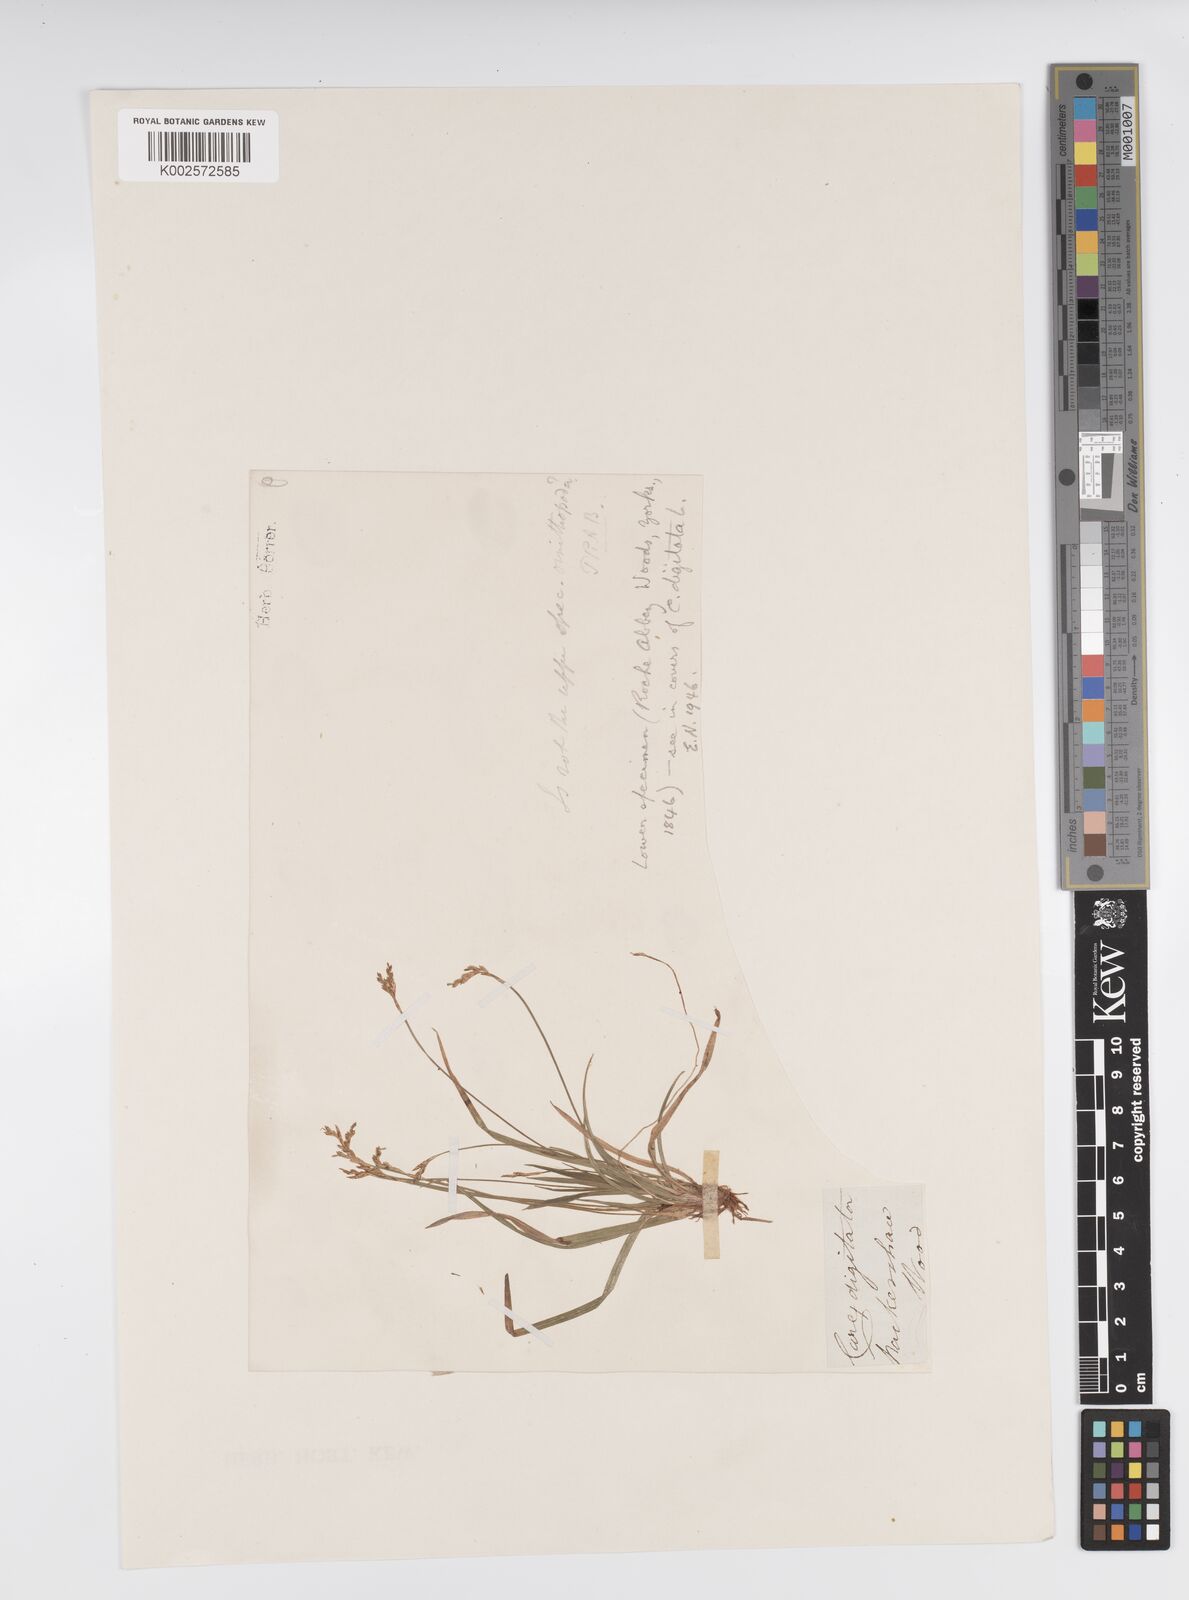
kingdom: Plantae
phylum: Tracheophyta
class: Liliopsida
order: Poales
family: Cyperaceae
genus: Carex
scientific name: Carex ornithopoda
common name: Bird's-foot sedge
